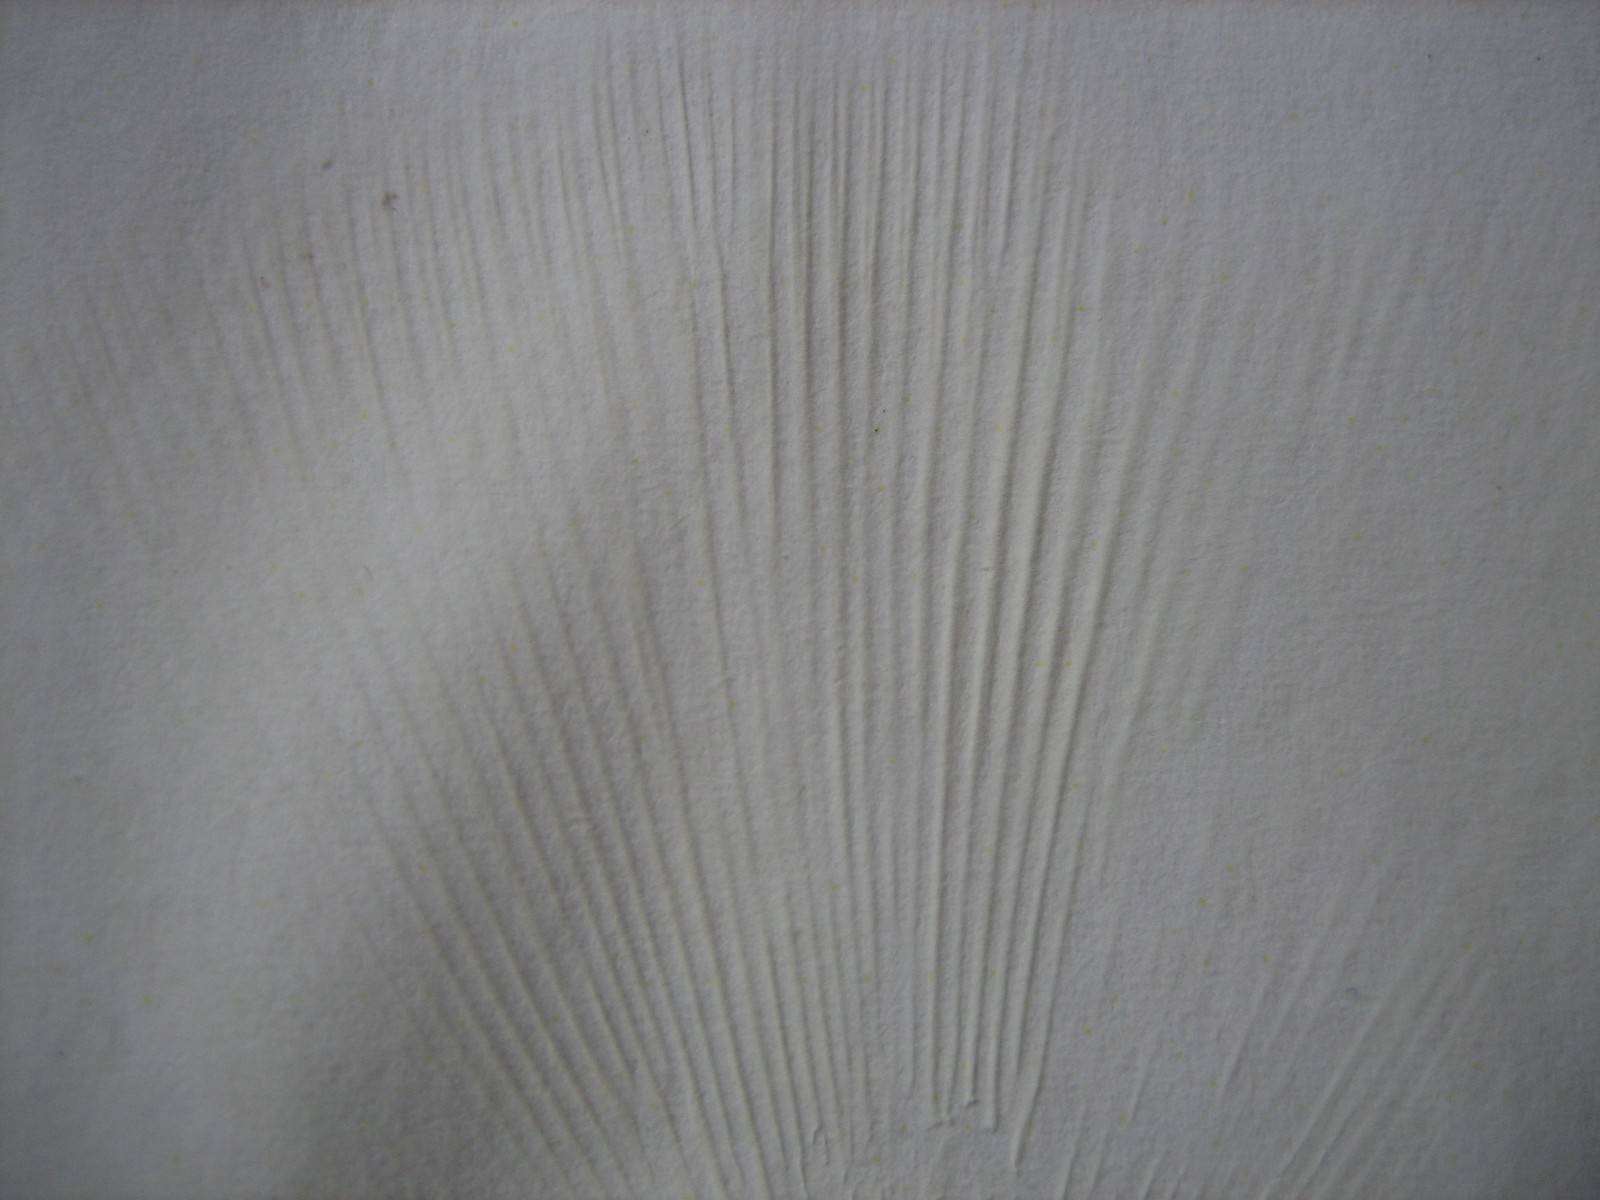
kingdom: Fungi
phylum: Basidiomycota
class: Agaricomycetes
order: Russulales
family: Russulaceae
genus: Russula
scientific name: Russula cyanoxantha
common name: broget skørhat
